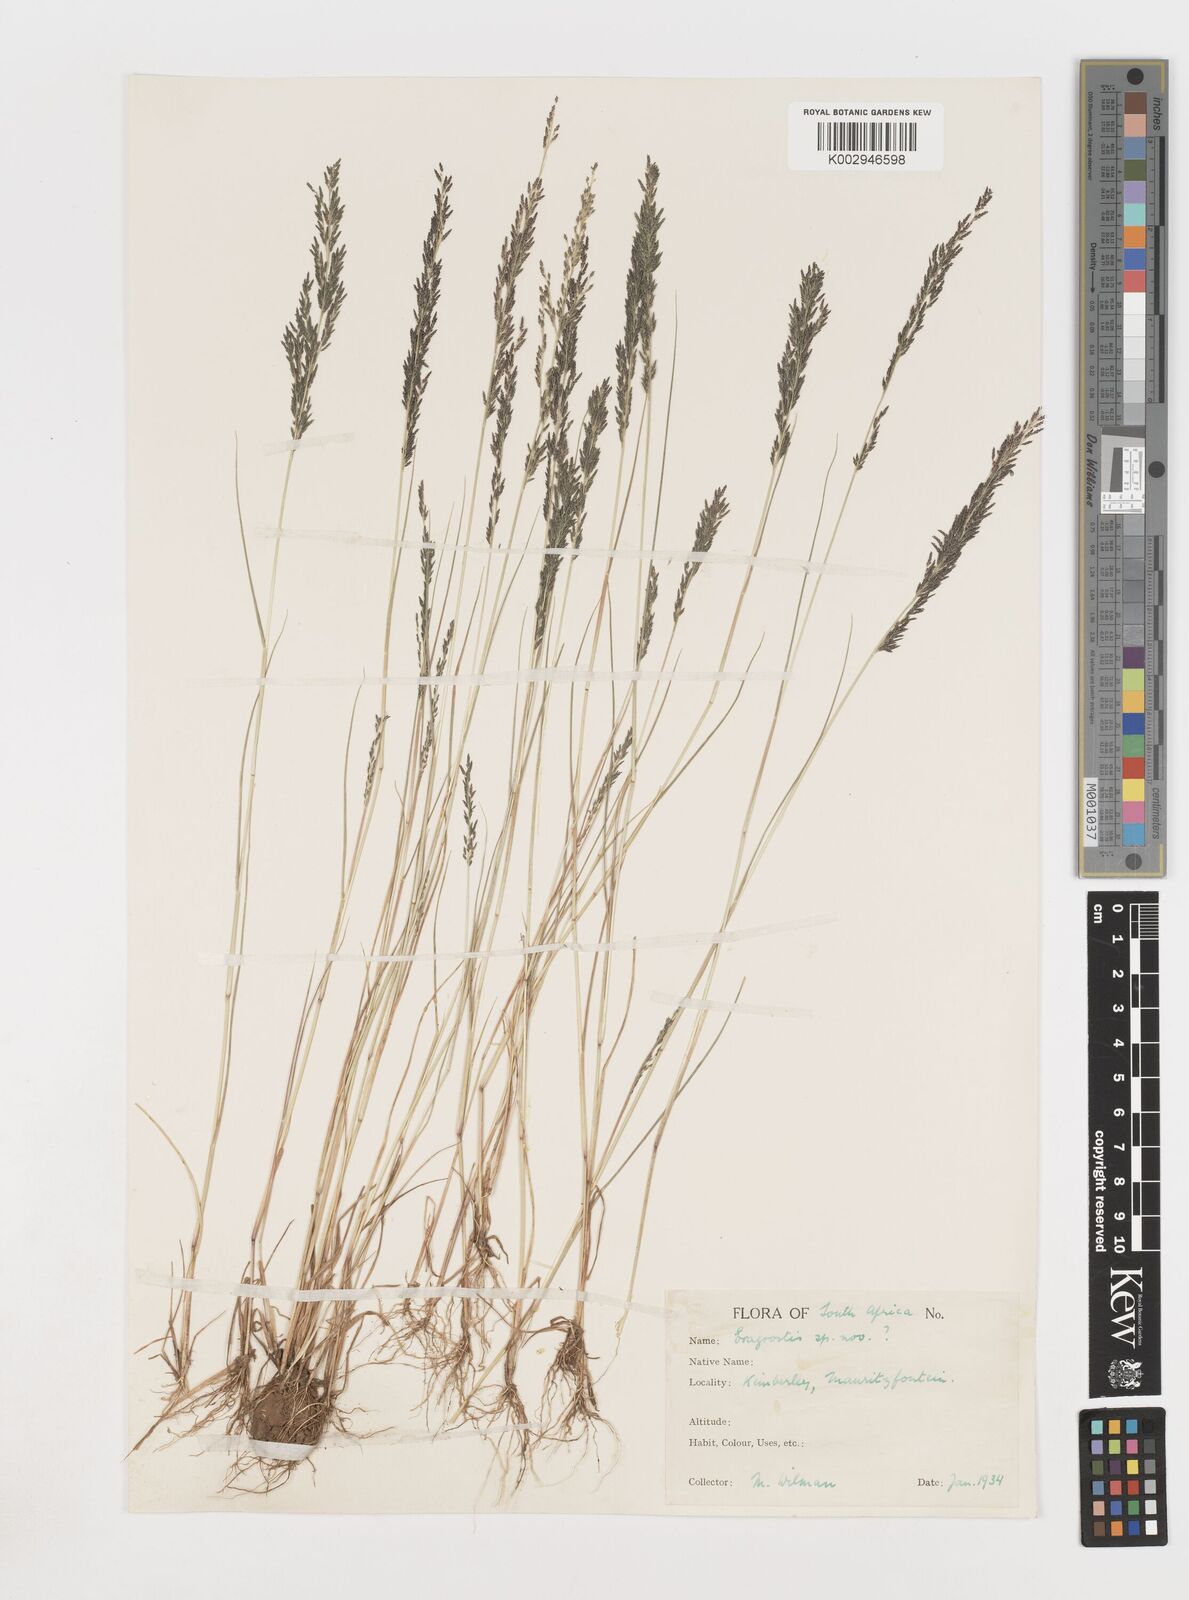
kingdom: Plantae
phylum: Tracheophyta
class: Liliopsida
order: Poales
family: Poaceae
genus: Eragrostis
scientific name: Eragrostis homomalla
